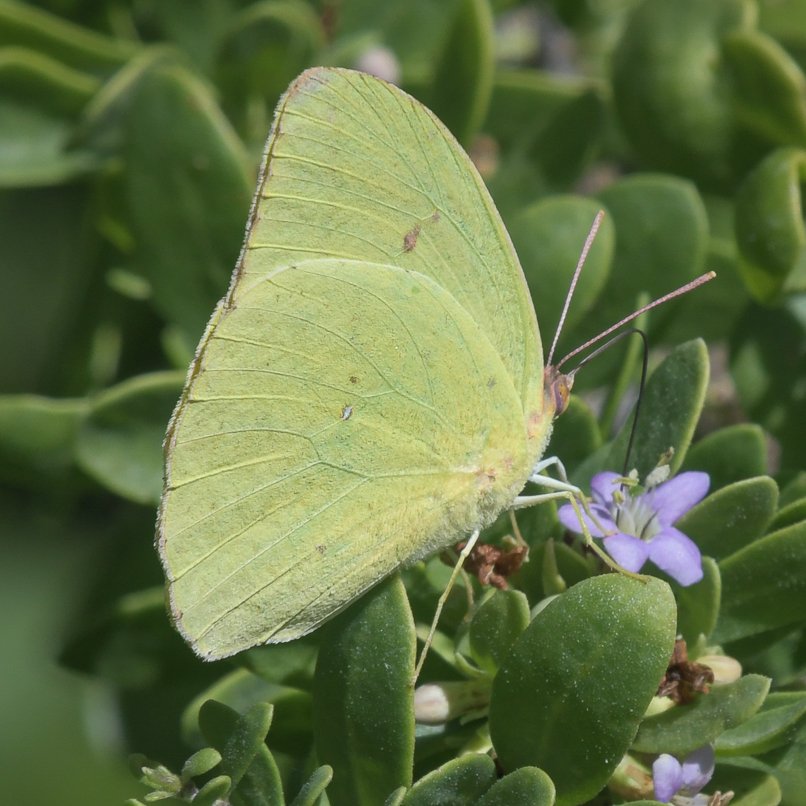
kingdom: Animalia
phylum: Arthropoda
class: Insecta
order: Lepidoptera
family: Pieridae
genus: Phoebis
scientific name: Phoebis sennae
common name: Cloudless Sulphur
